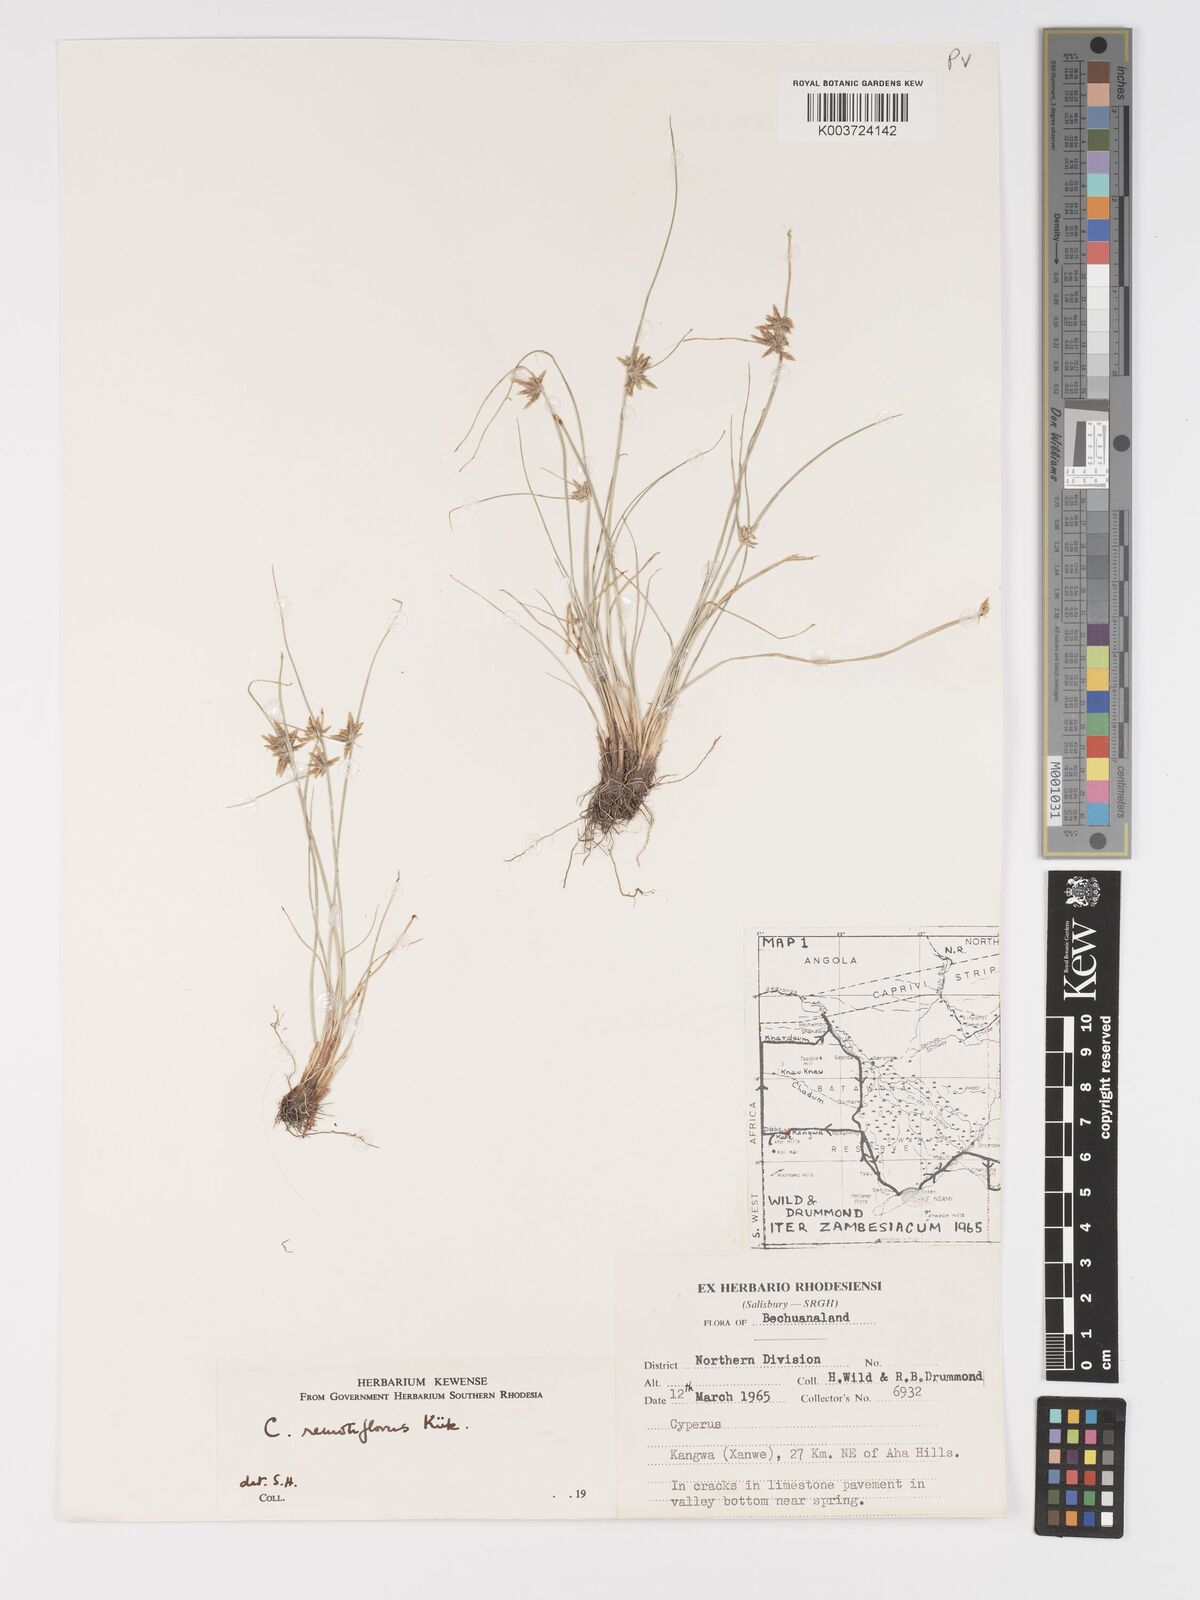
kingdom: Plantae
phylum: Tracheophyta
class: Liliopsida
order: Poales
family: Cyperaceae
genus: Cyperus
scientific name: Cyperus remotiflorus
